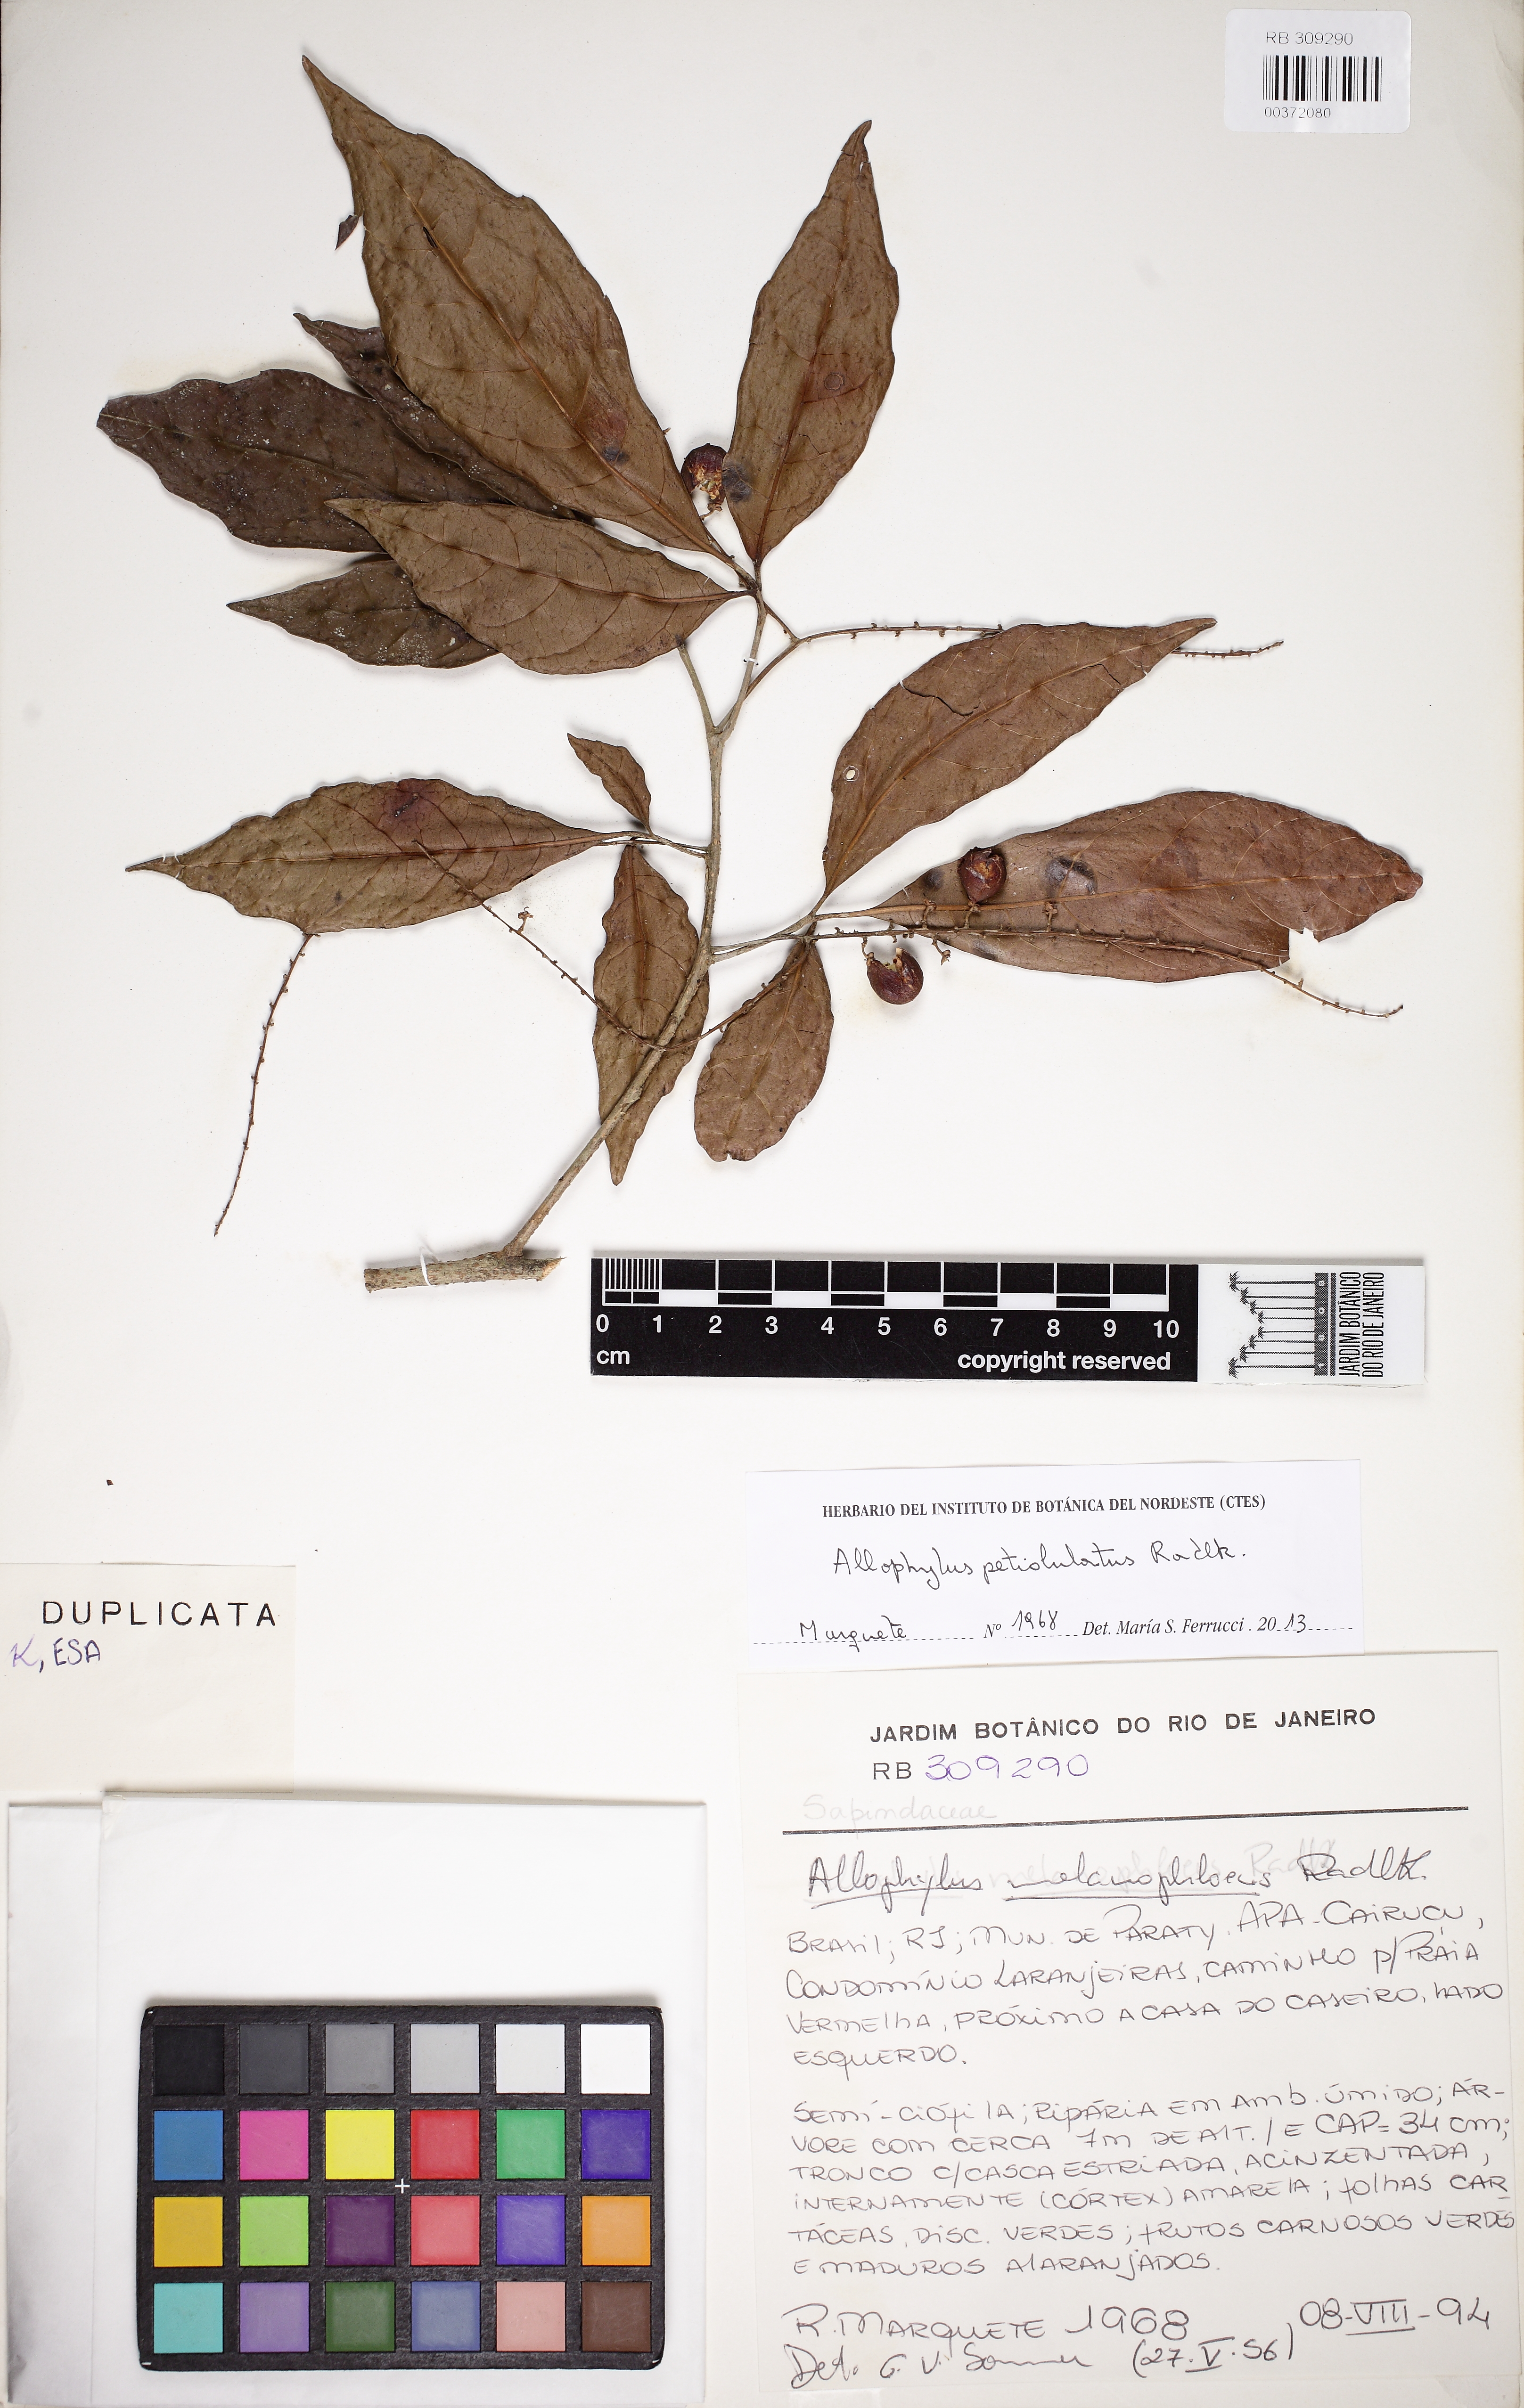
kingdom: Plantae
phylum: Tracheophyta
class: Magnoliopsida
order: Sapindales
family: Sapindaceae
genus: Allophylus
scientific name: Allophylus petiolulatus
